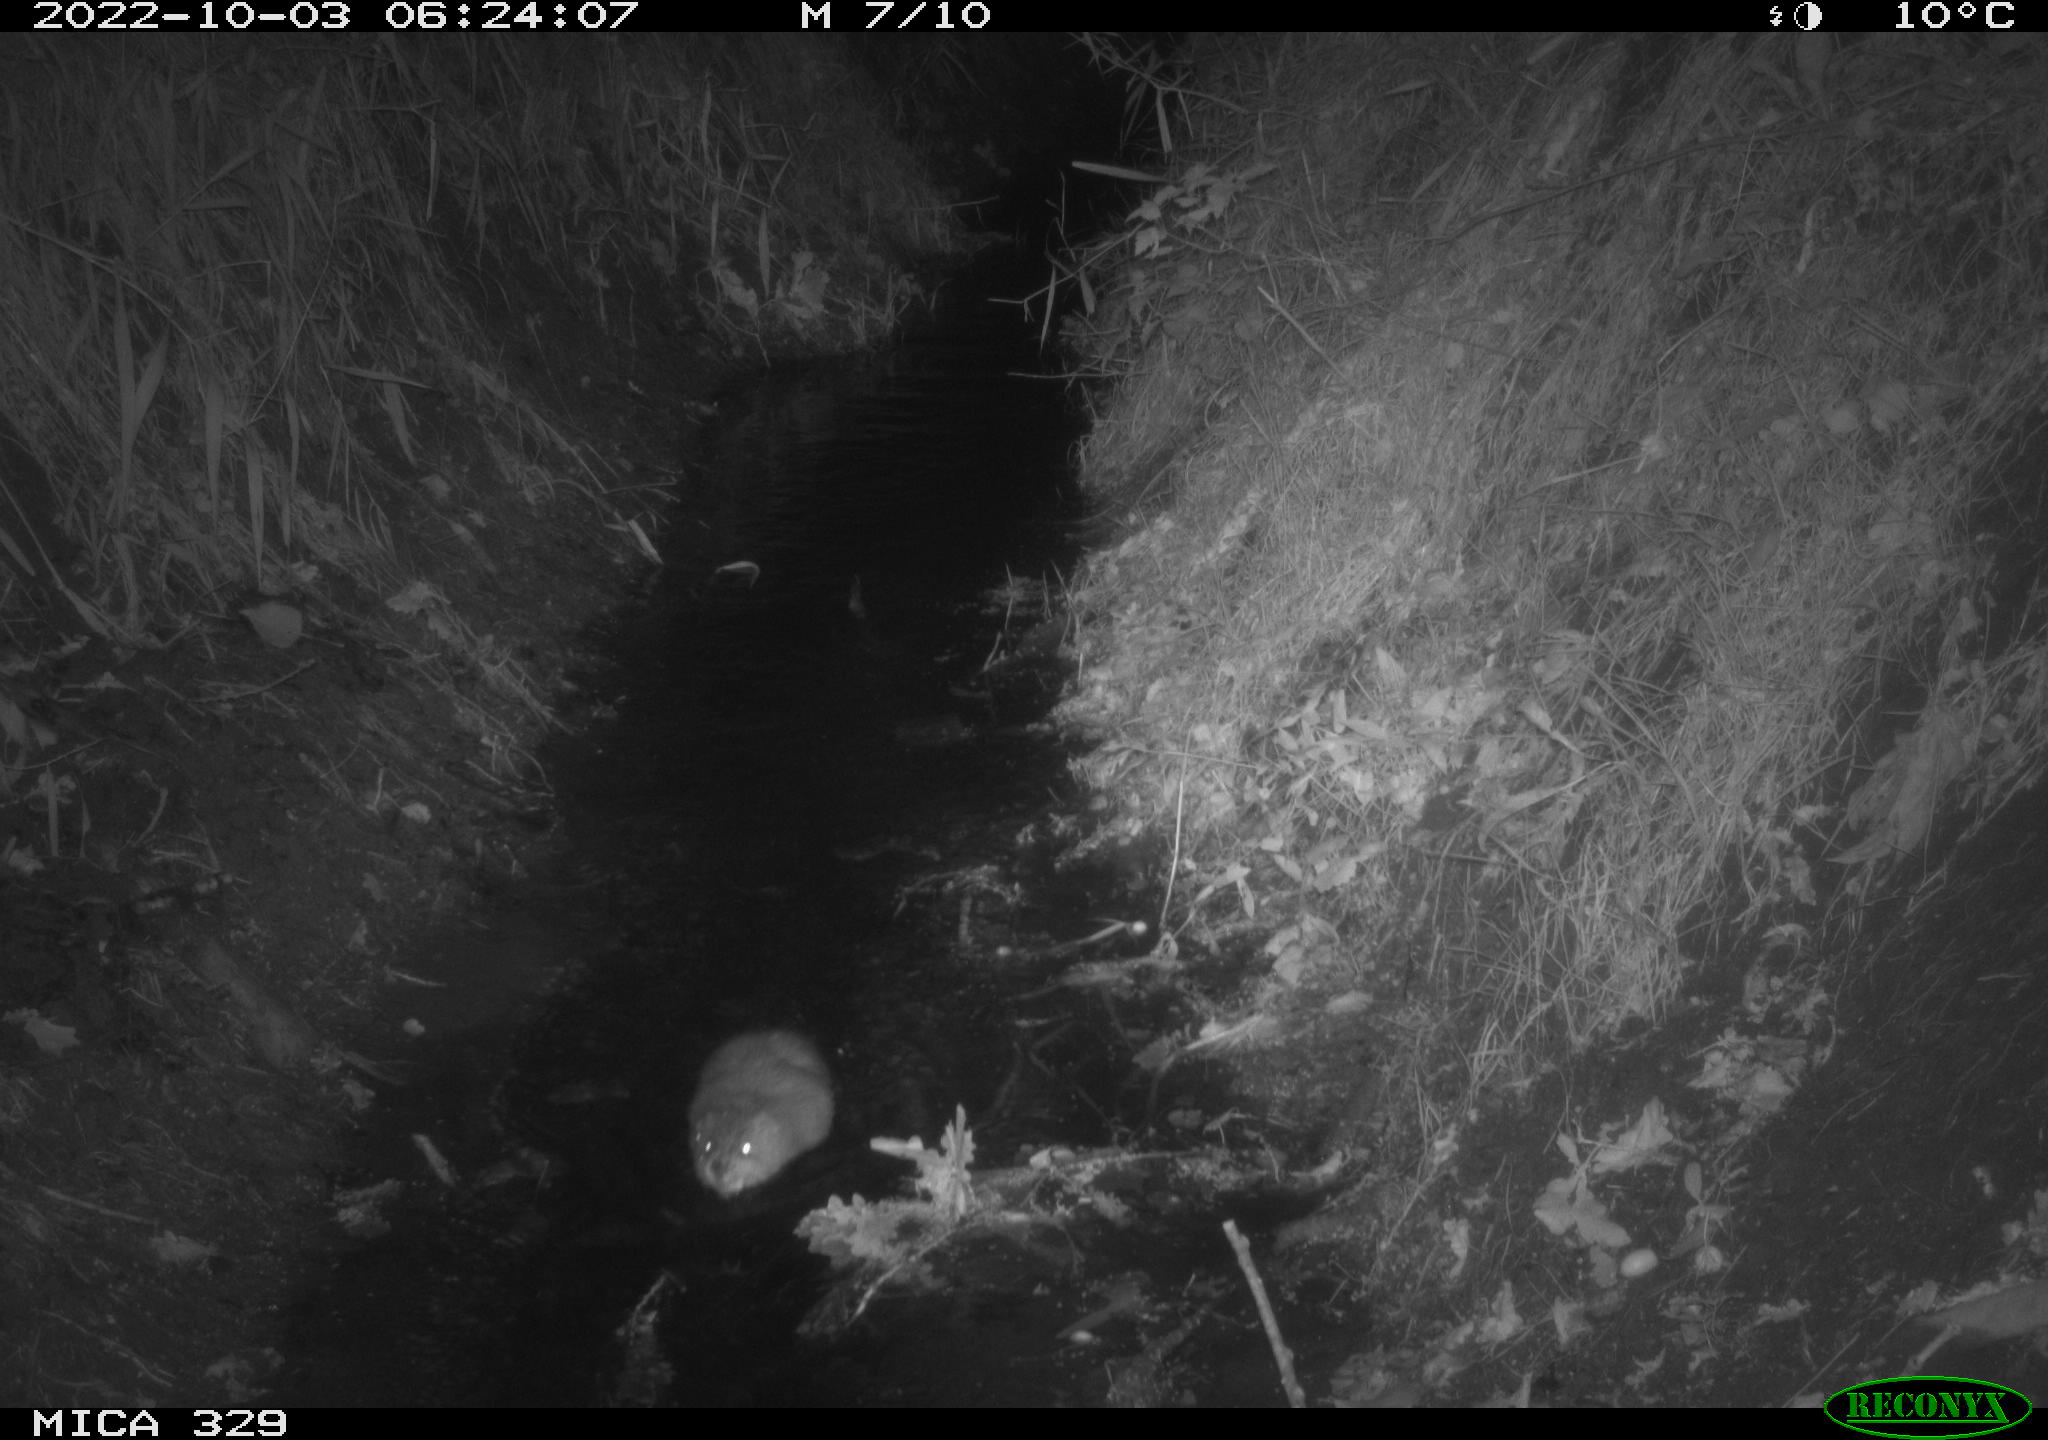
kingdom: Animalia
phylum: Chordata
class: Mammalia
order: Rodentia
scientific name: Rodentia
